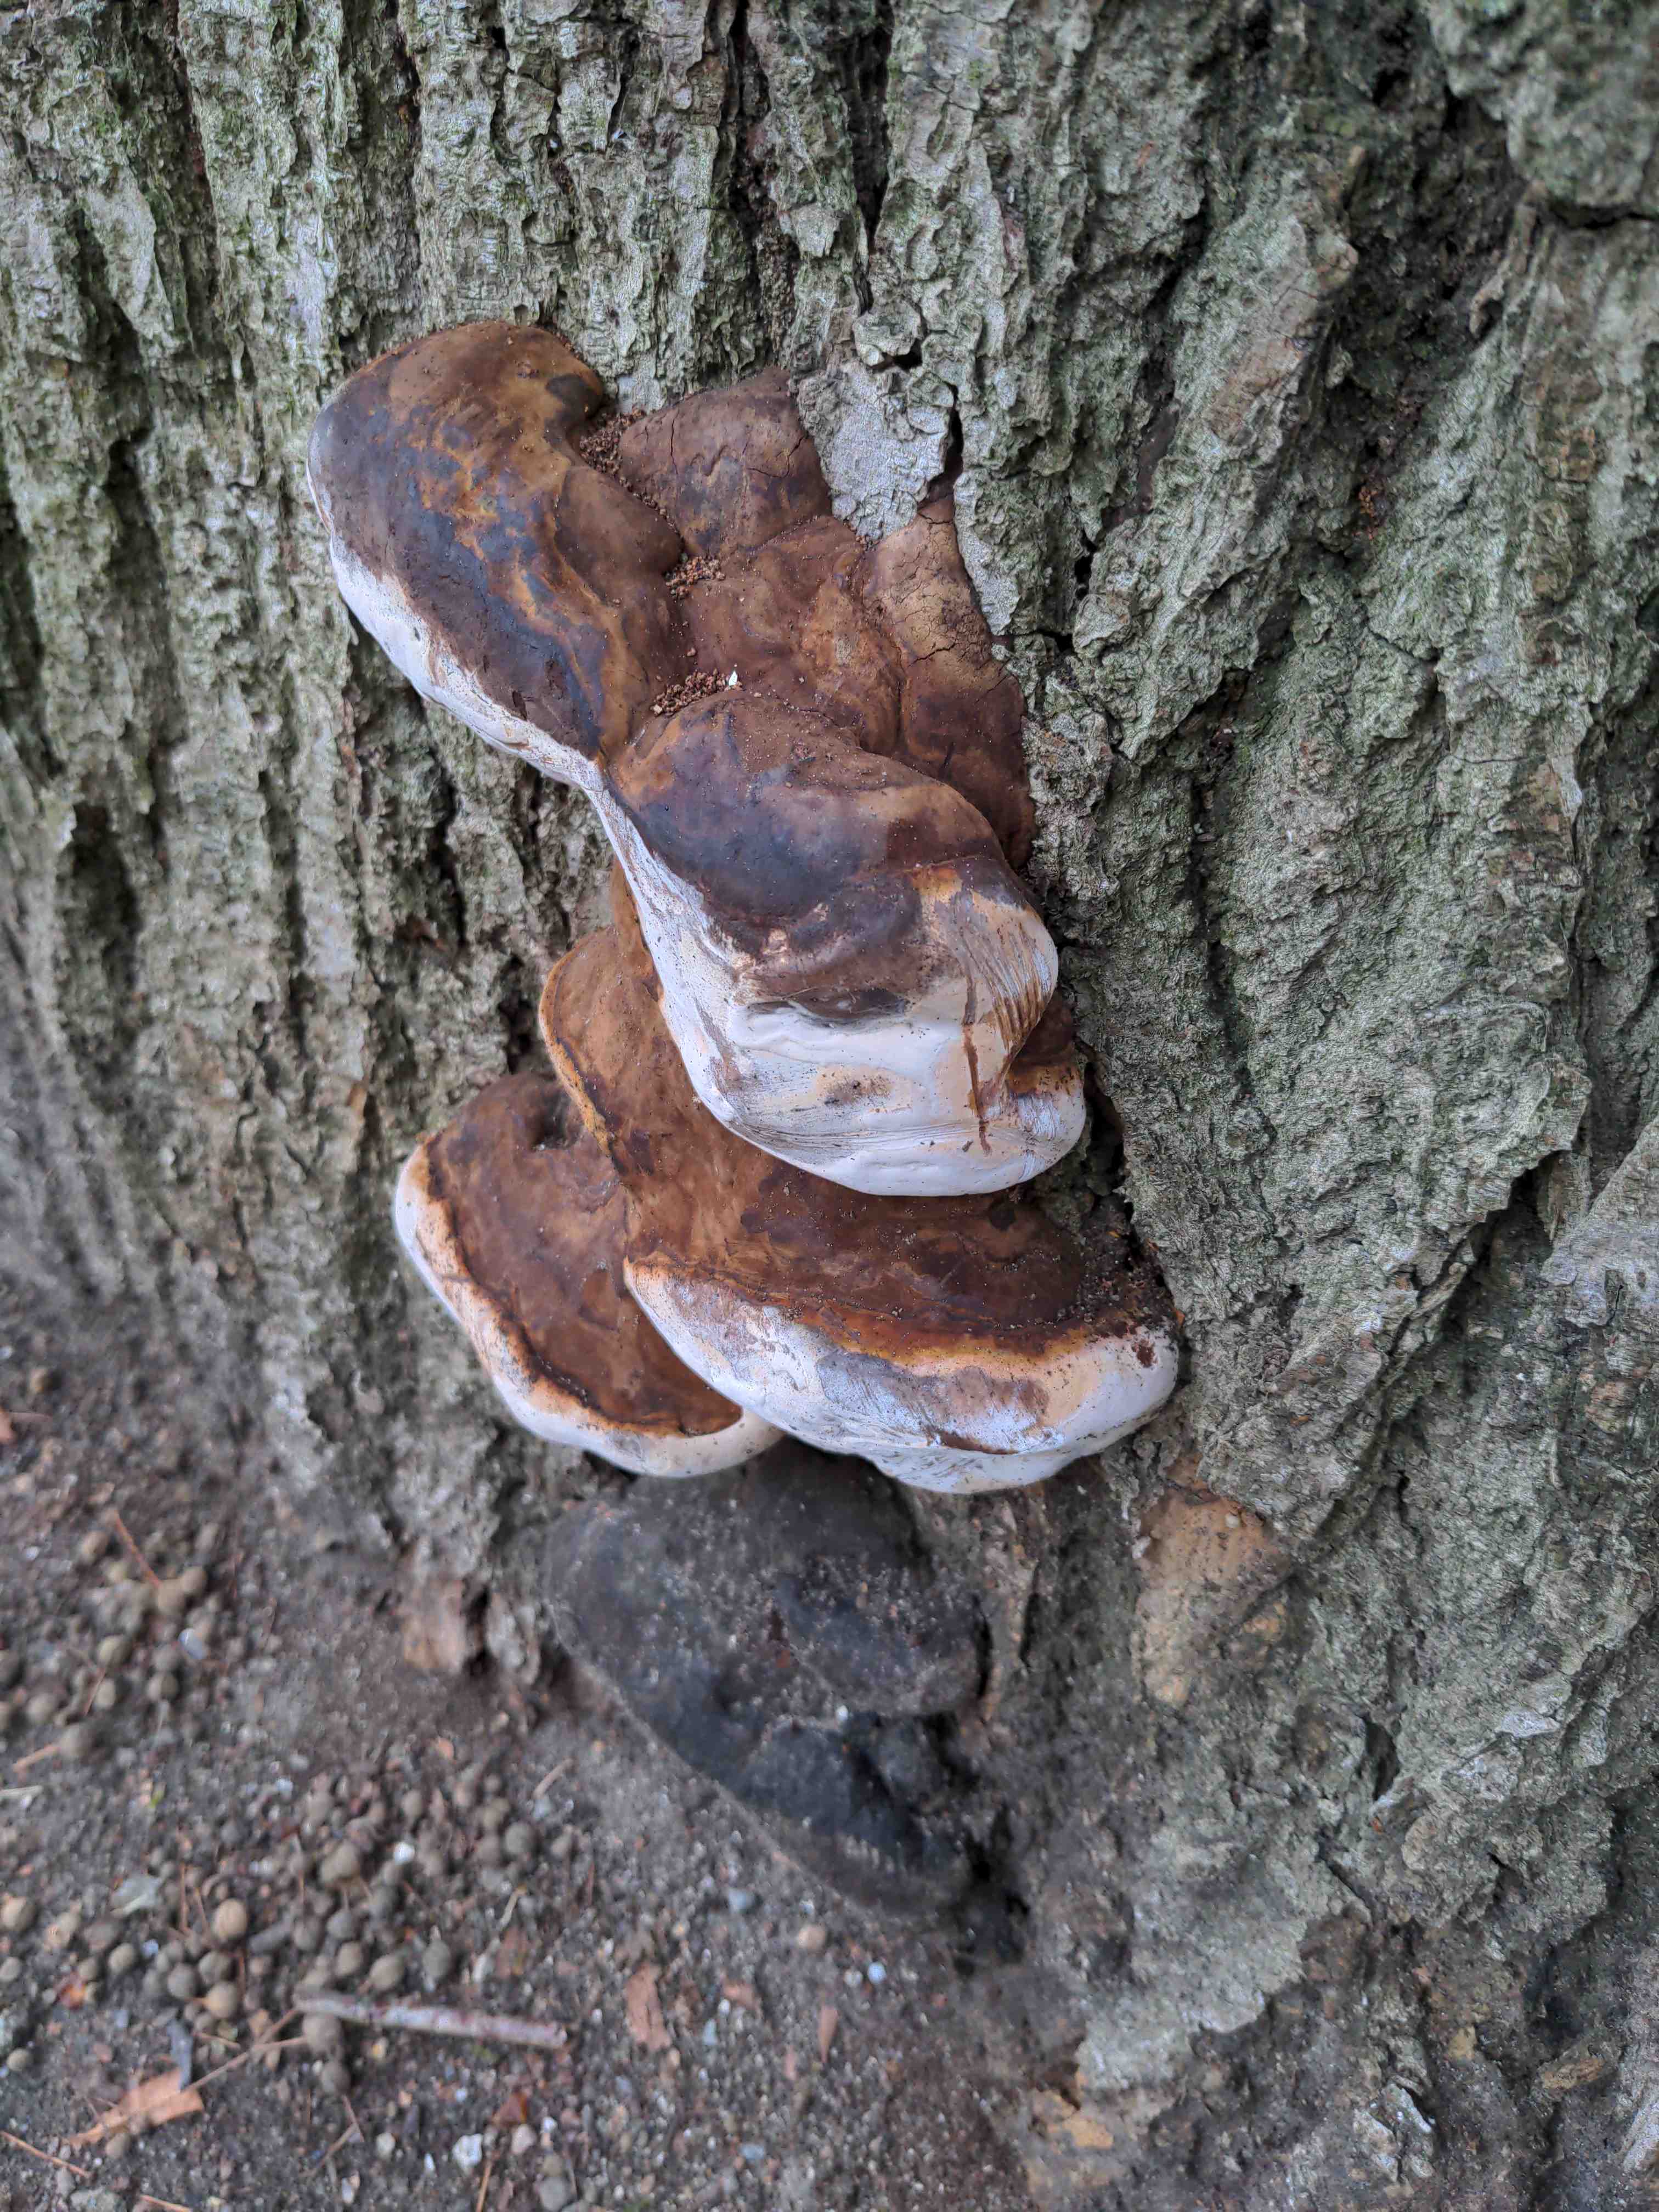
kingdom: Fungi
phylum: Basidiomycota
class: Agaricomycetes
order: Polyporales
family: Polyporaceae
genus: Ganoderma
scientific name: Ganoderma adspersum
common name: grov lakporesvamp
